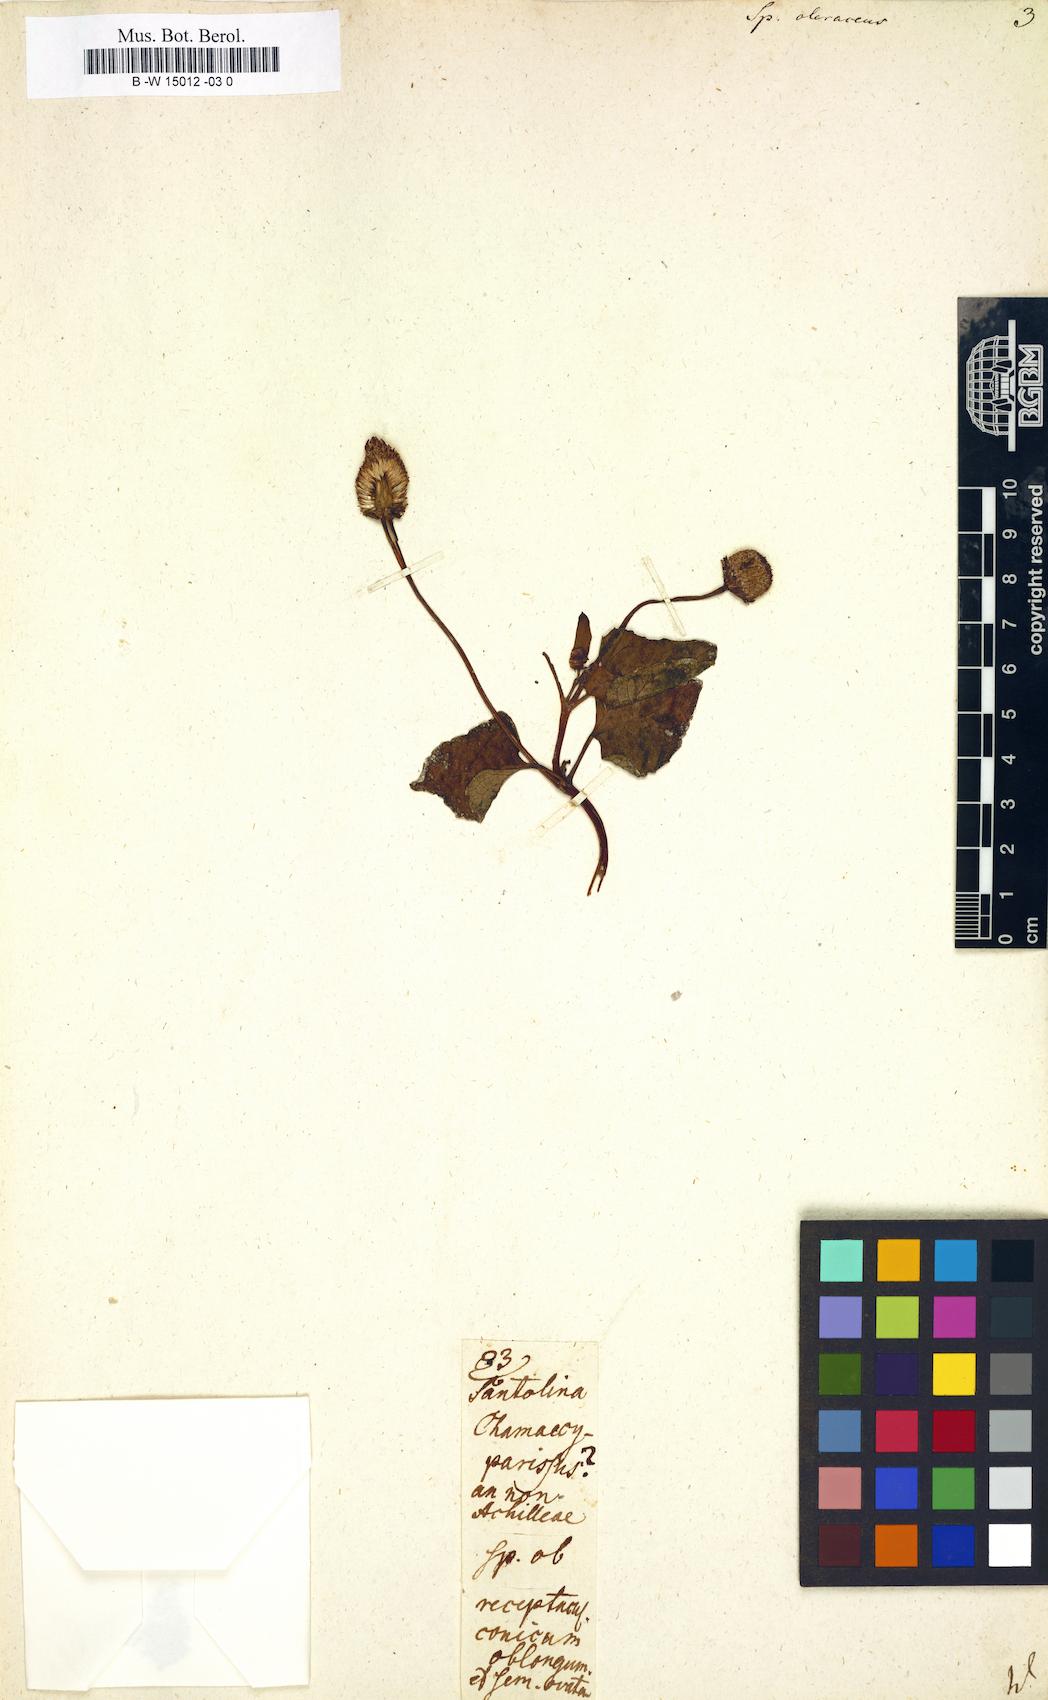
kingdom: Plantae
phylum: Tracheophyta
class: Magnoliopsida
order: Asterales
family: Asteraceae
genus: Acmella
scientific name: Acmella oleracea
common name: Brazilian cress
